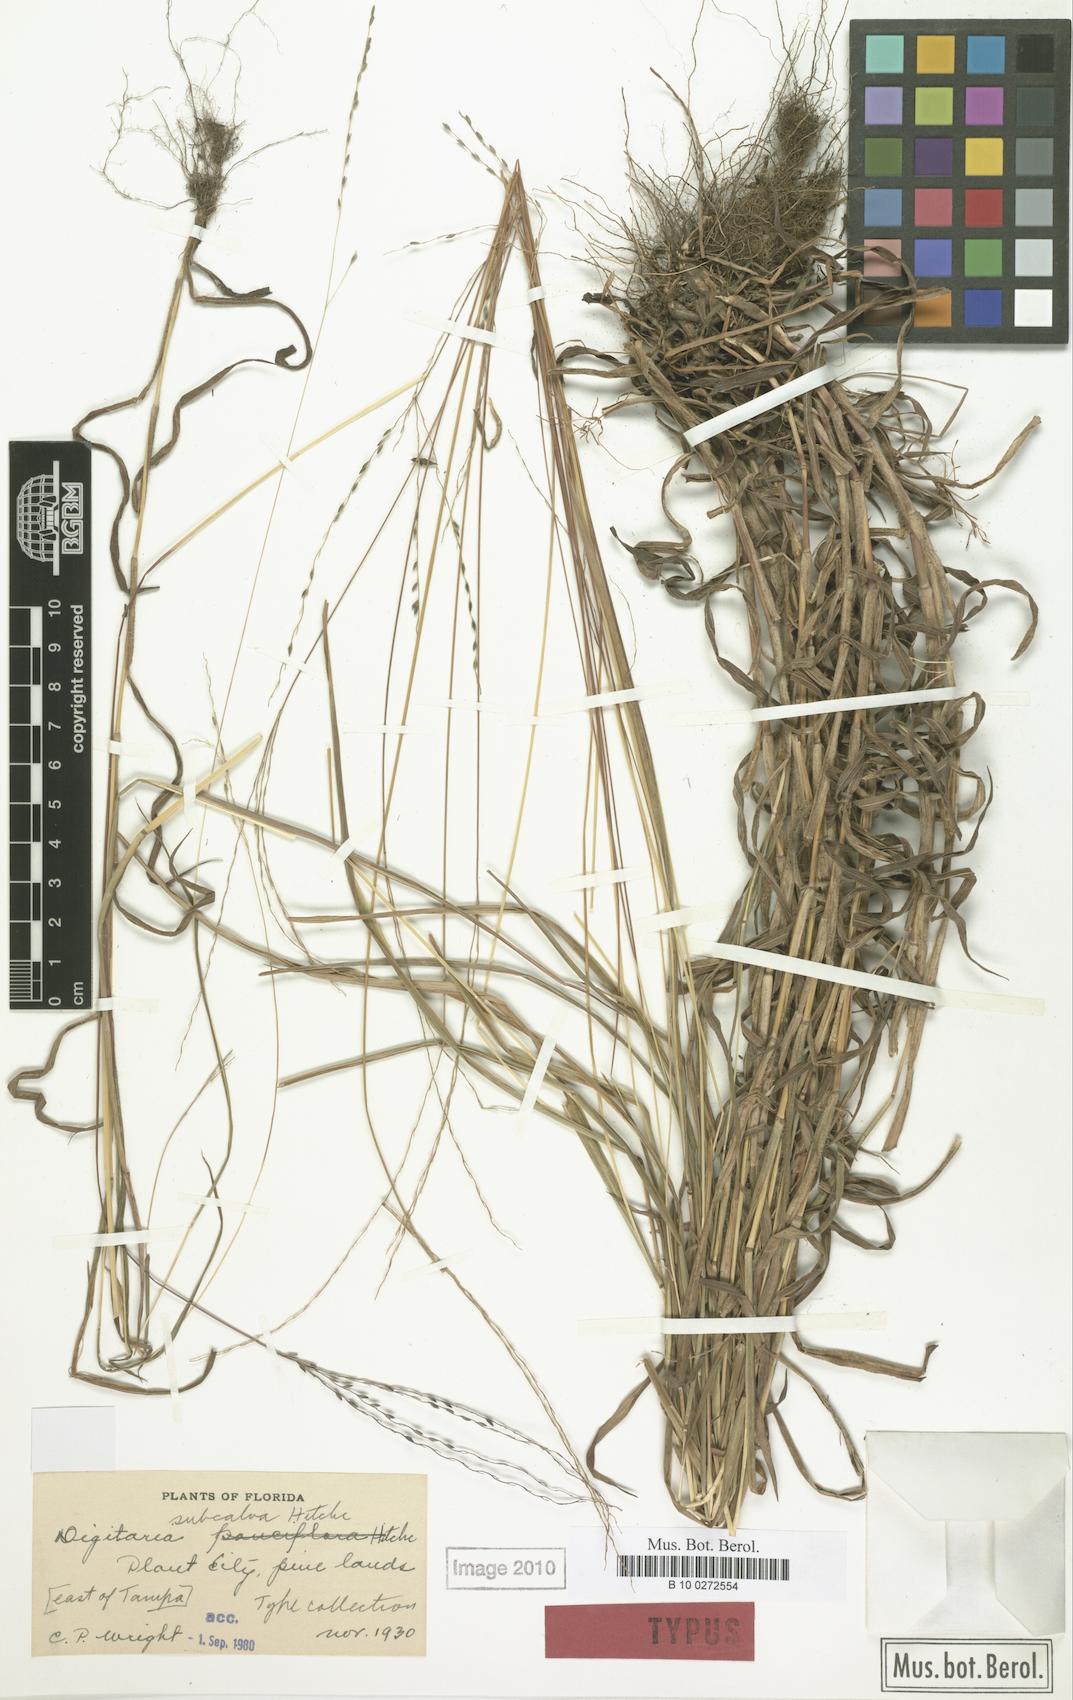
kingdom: Plantae
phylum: Tracheophyta
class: Liliopsida
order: Poales
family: Poaceae
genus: Digitaria
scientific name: Digitaria subcalva
